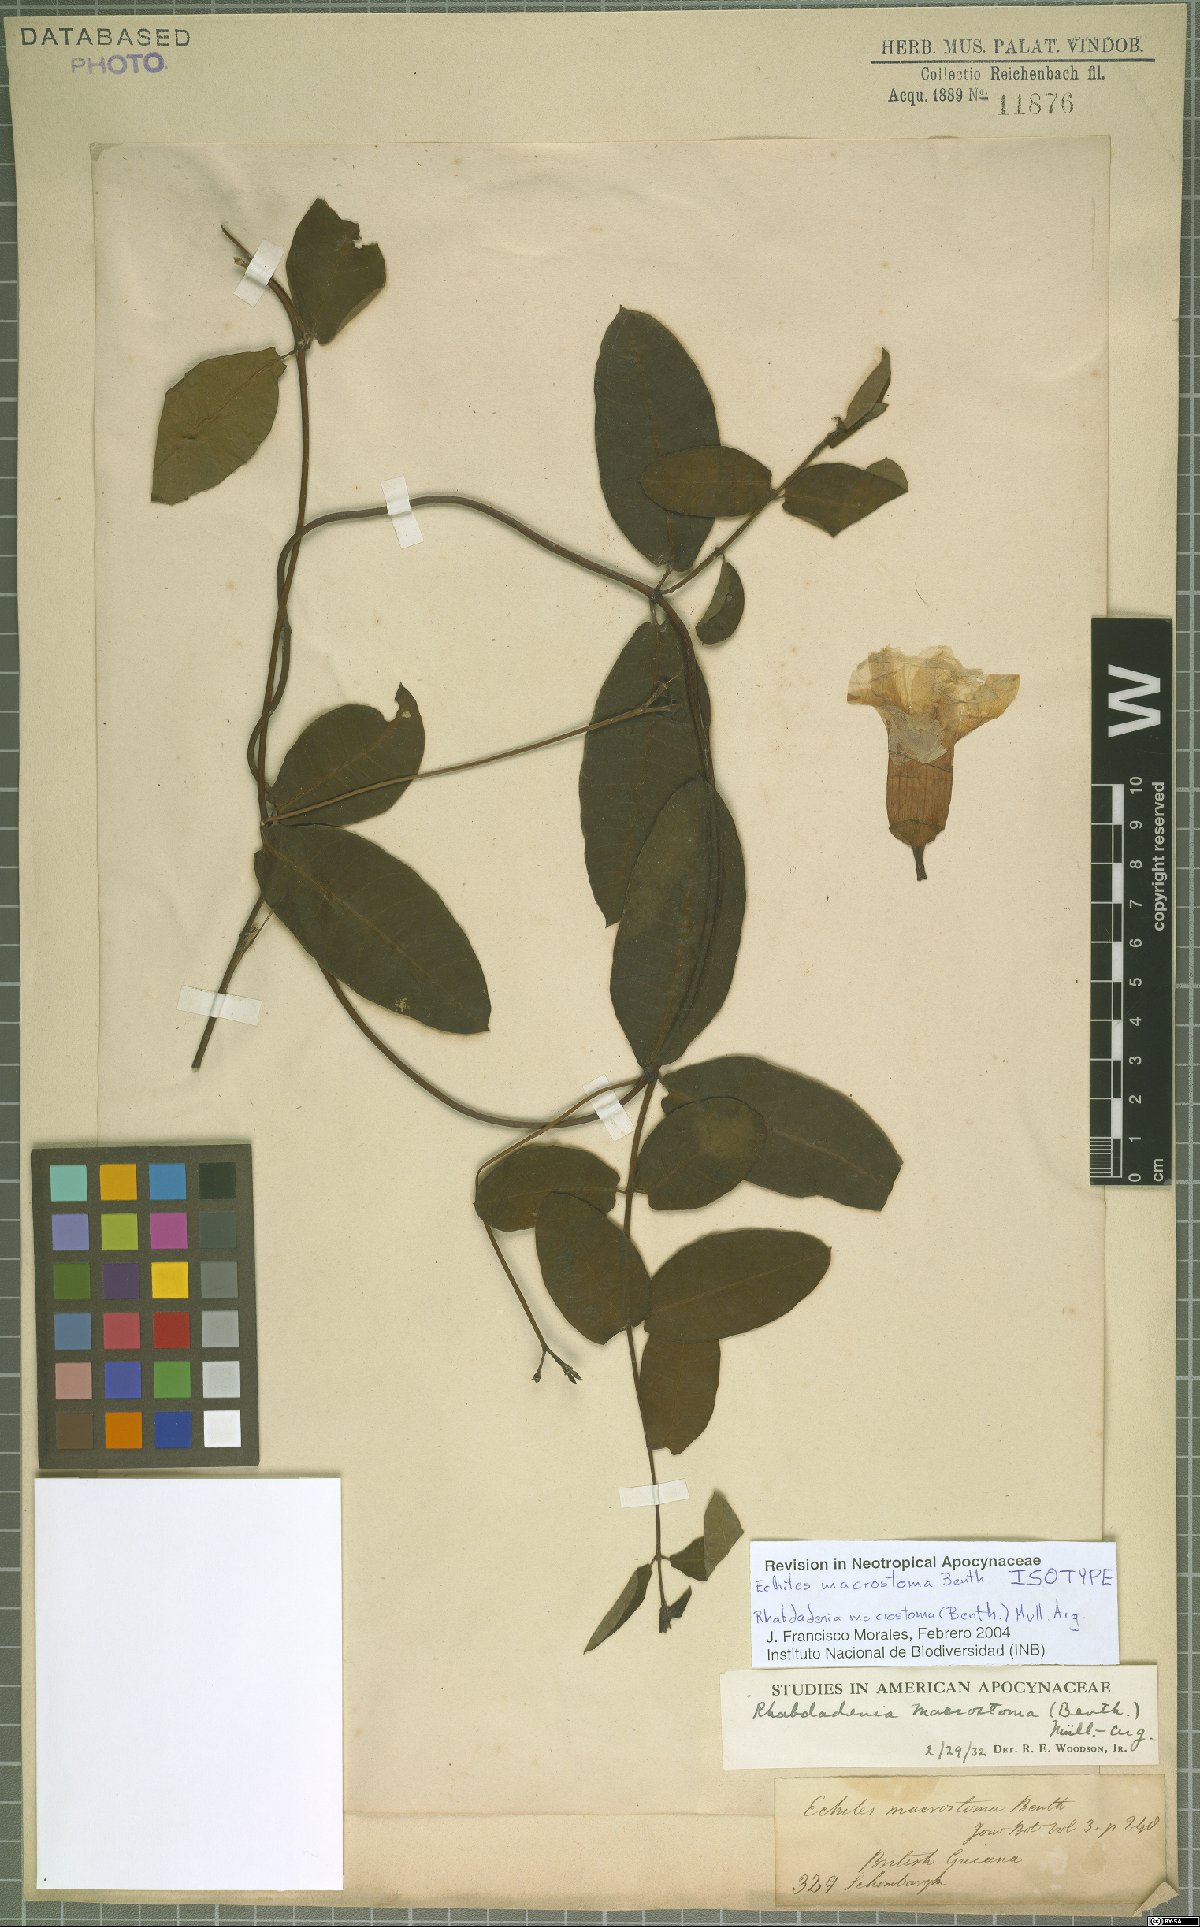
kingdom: Plantae
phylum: Tracheophyta
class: Magnoliopsida
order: Gentianales
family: Apocynaceae
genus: Rhabdadenia
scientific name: Rhabdadenia madida
